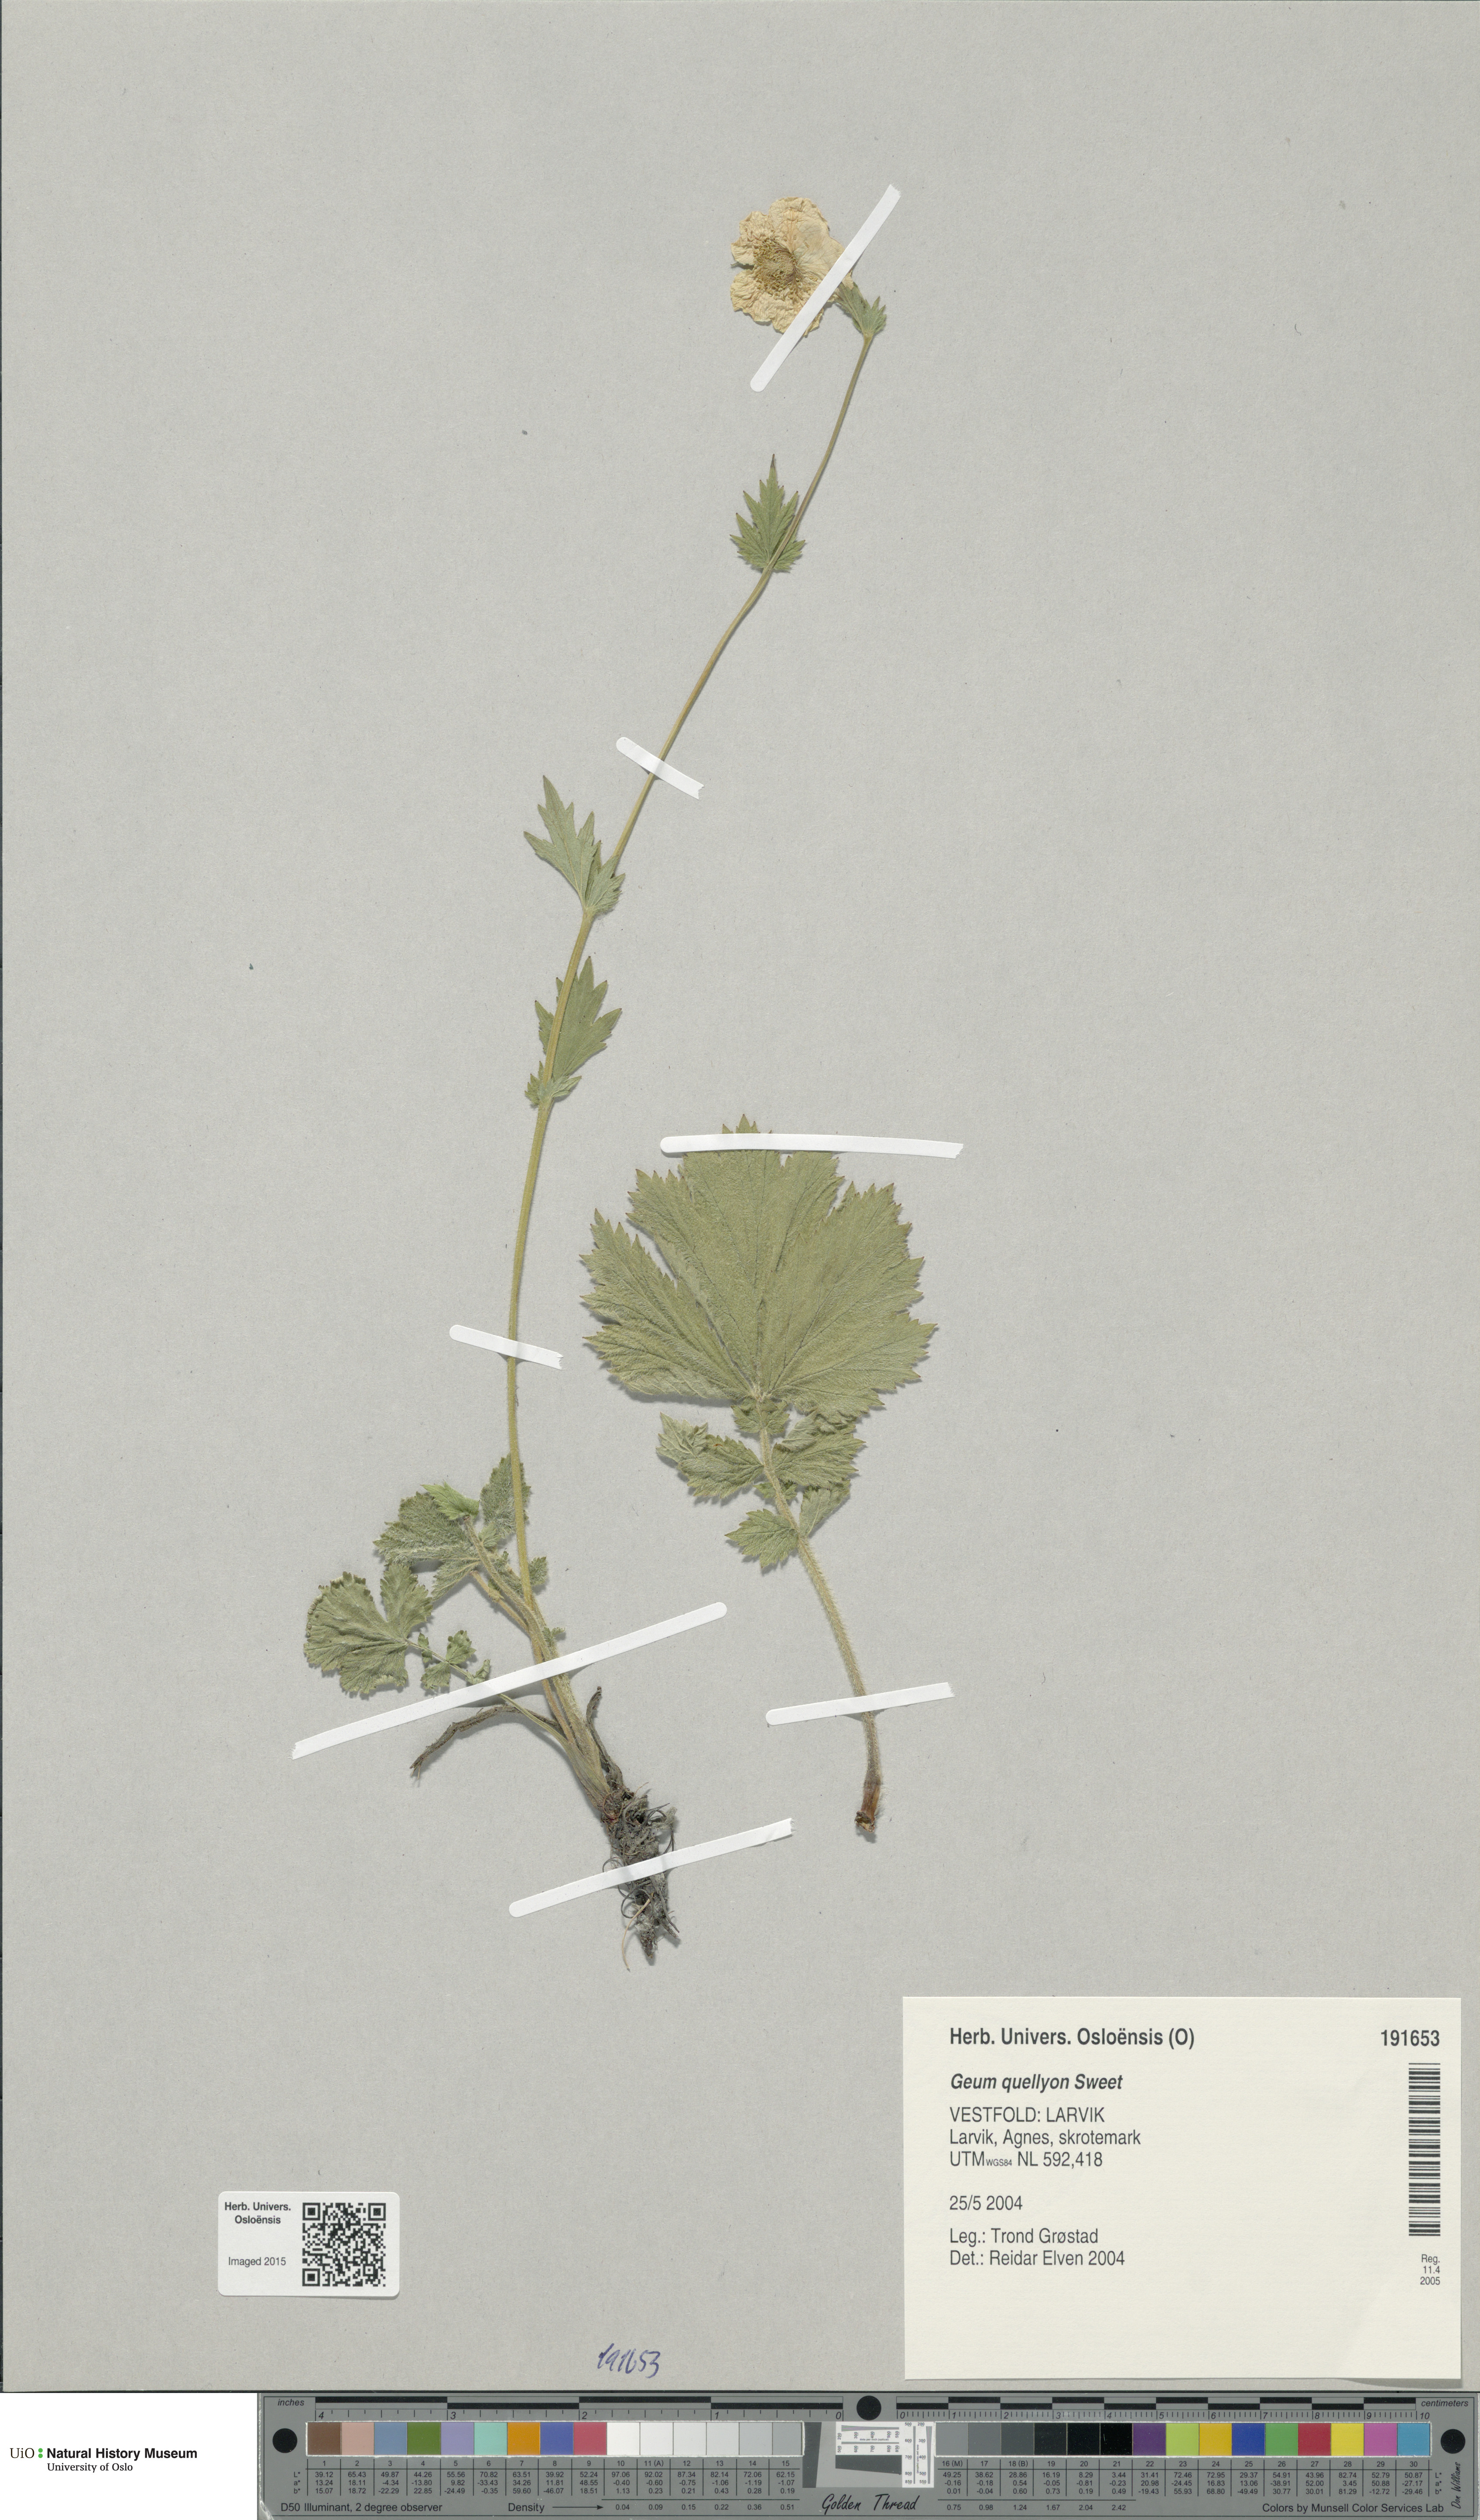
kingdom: Plantae
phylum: Tracheophyta
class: Magnoliopsida
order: Rosales
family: Rosaceae
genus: Geum
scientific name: Geum quellyon
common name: Scarlet avens
